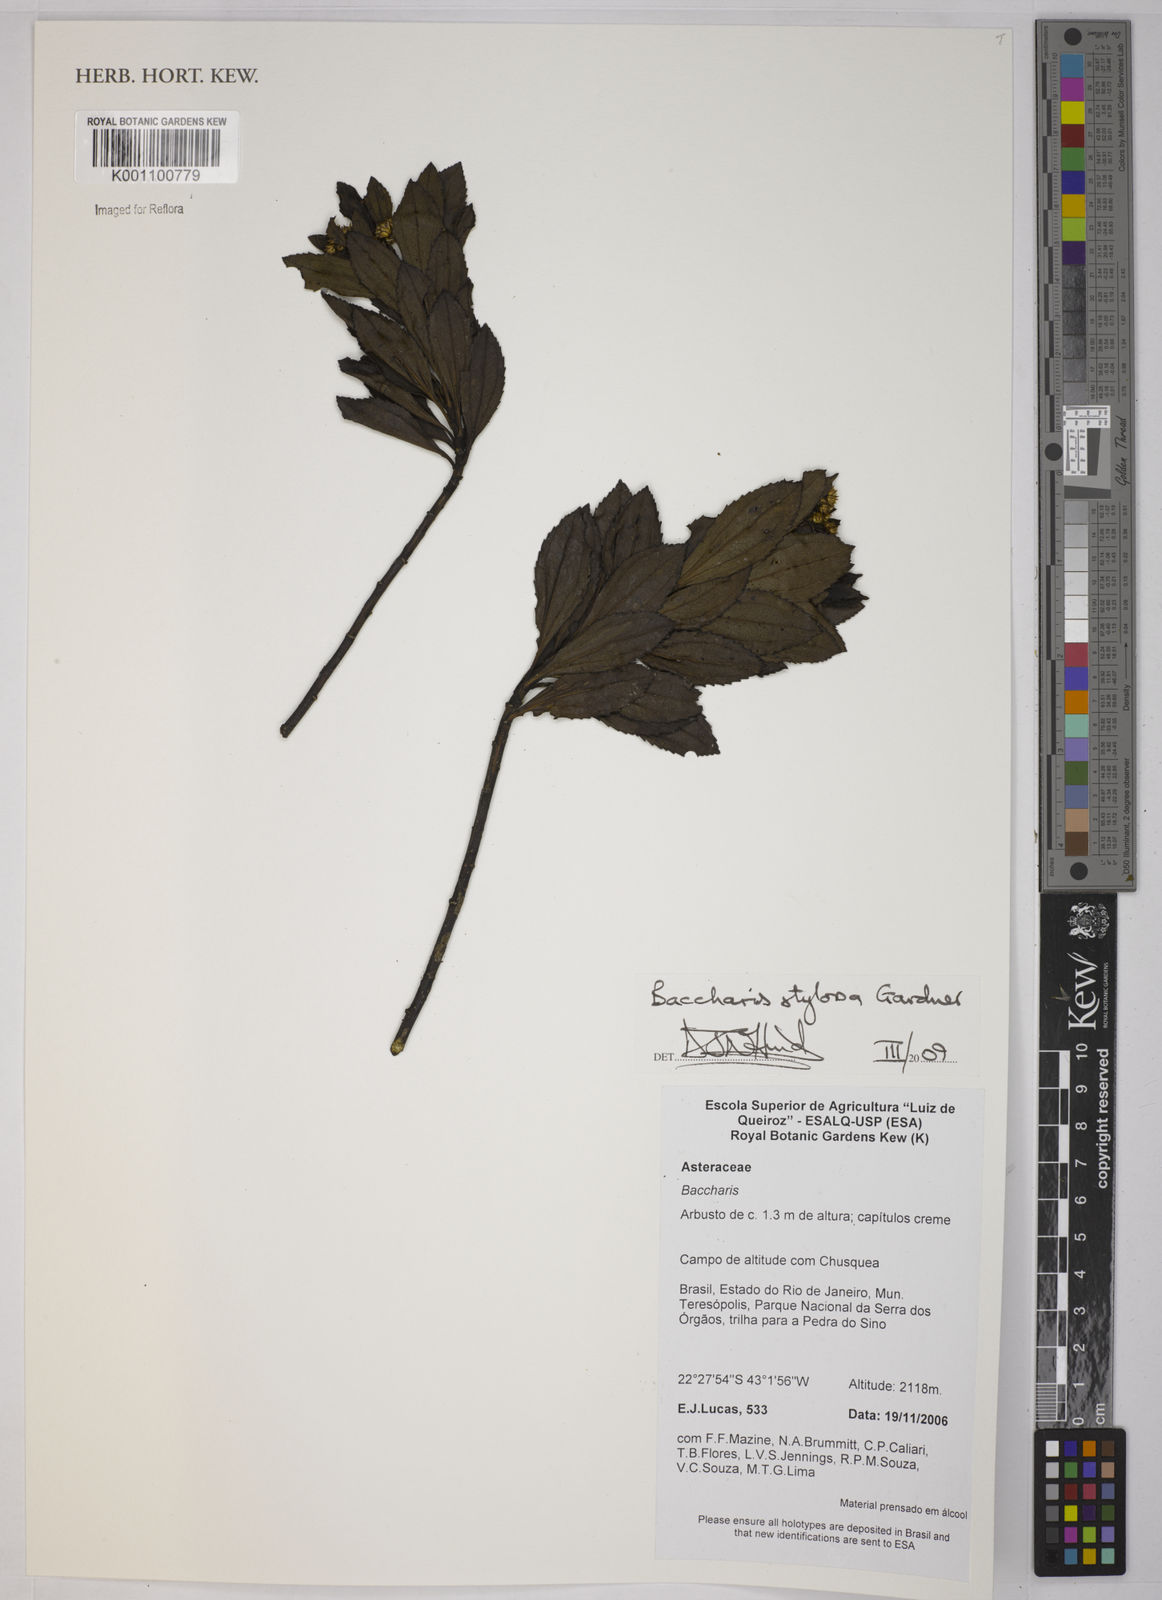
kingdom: Plantae
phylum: Tracheophyta
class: Magnoliopsida
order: Asterales
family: Asteraceae
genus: Baccharis
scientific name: Baccharis stylosa
